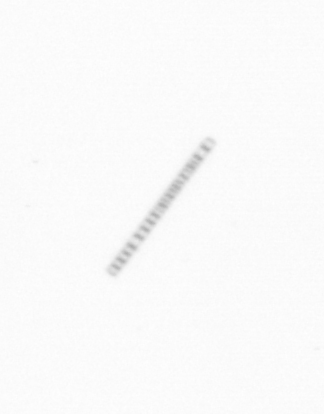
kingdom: Chromista
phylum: Ochrophyta
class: Bacillariophyceae
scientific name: Bacillariophyceae
